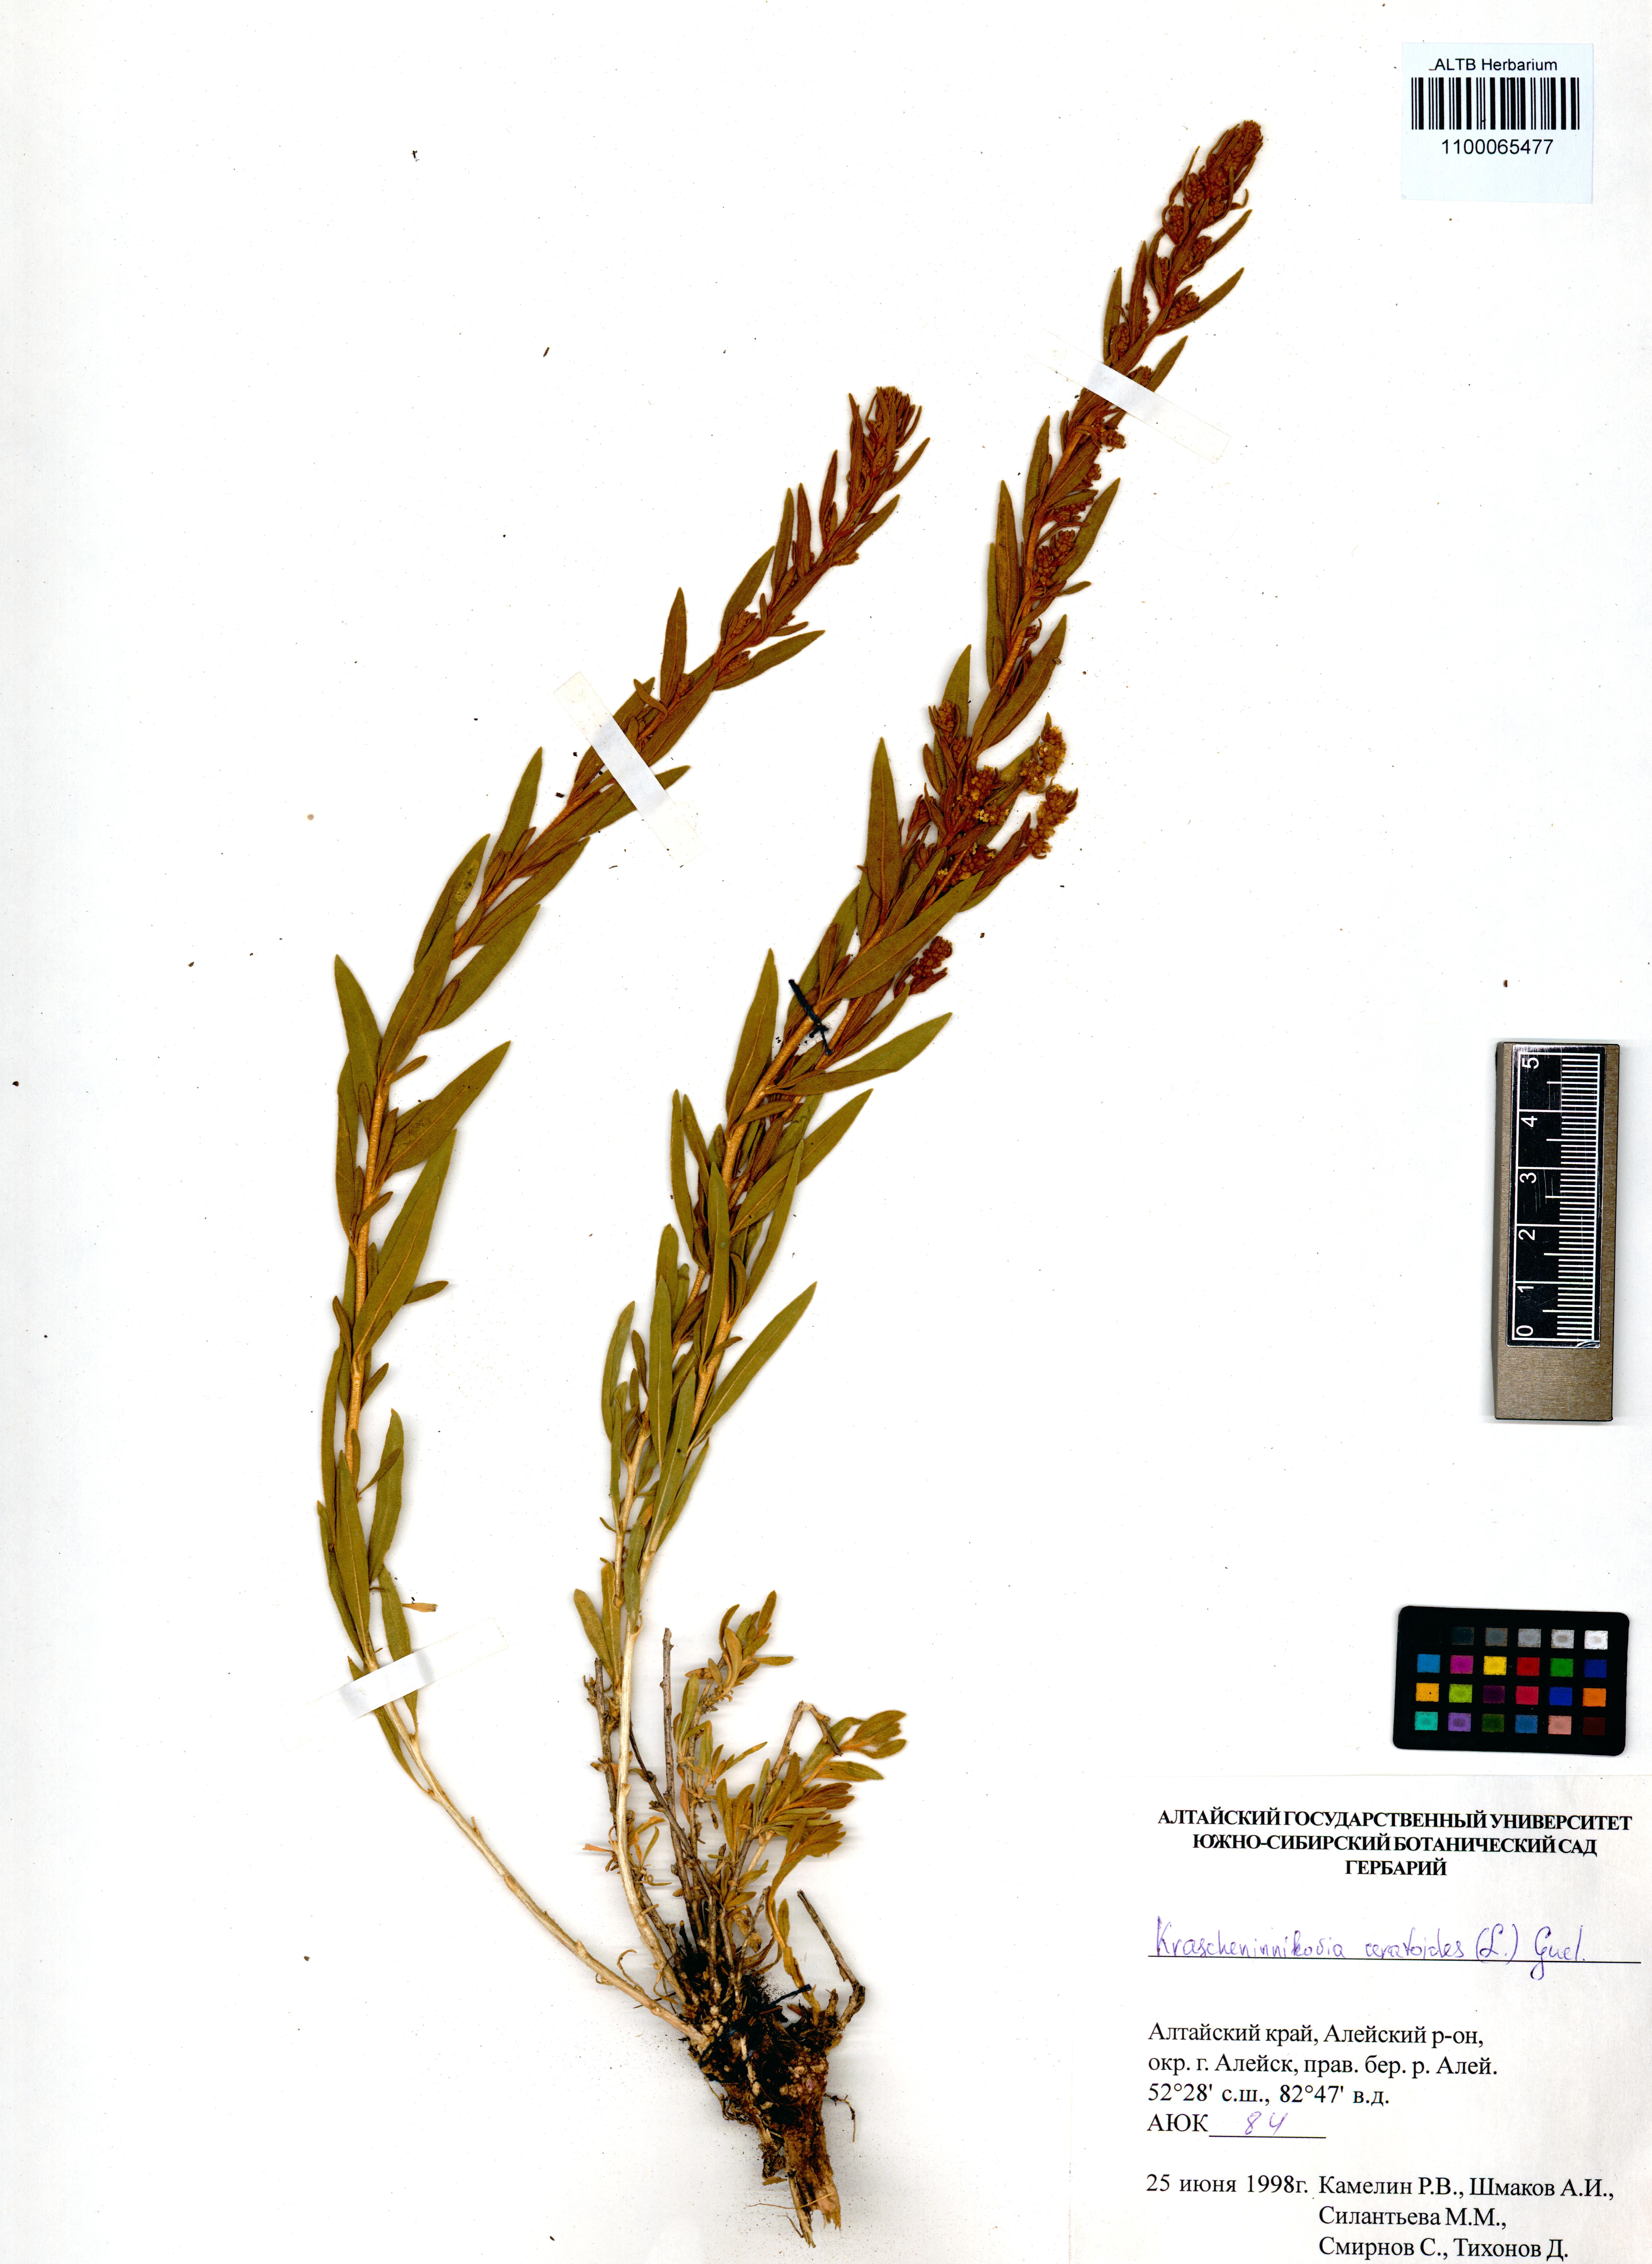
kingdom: Plantae
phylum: Tracheophyta
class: Magnoliopsida
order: Caryophyllales
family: Amaranthaceae
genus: Krascheninnikovia
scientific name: Krascheninnikovia ceratoides
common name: Pamirian winterfat
